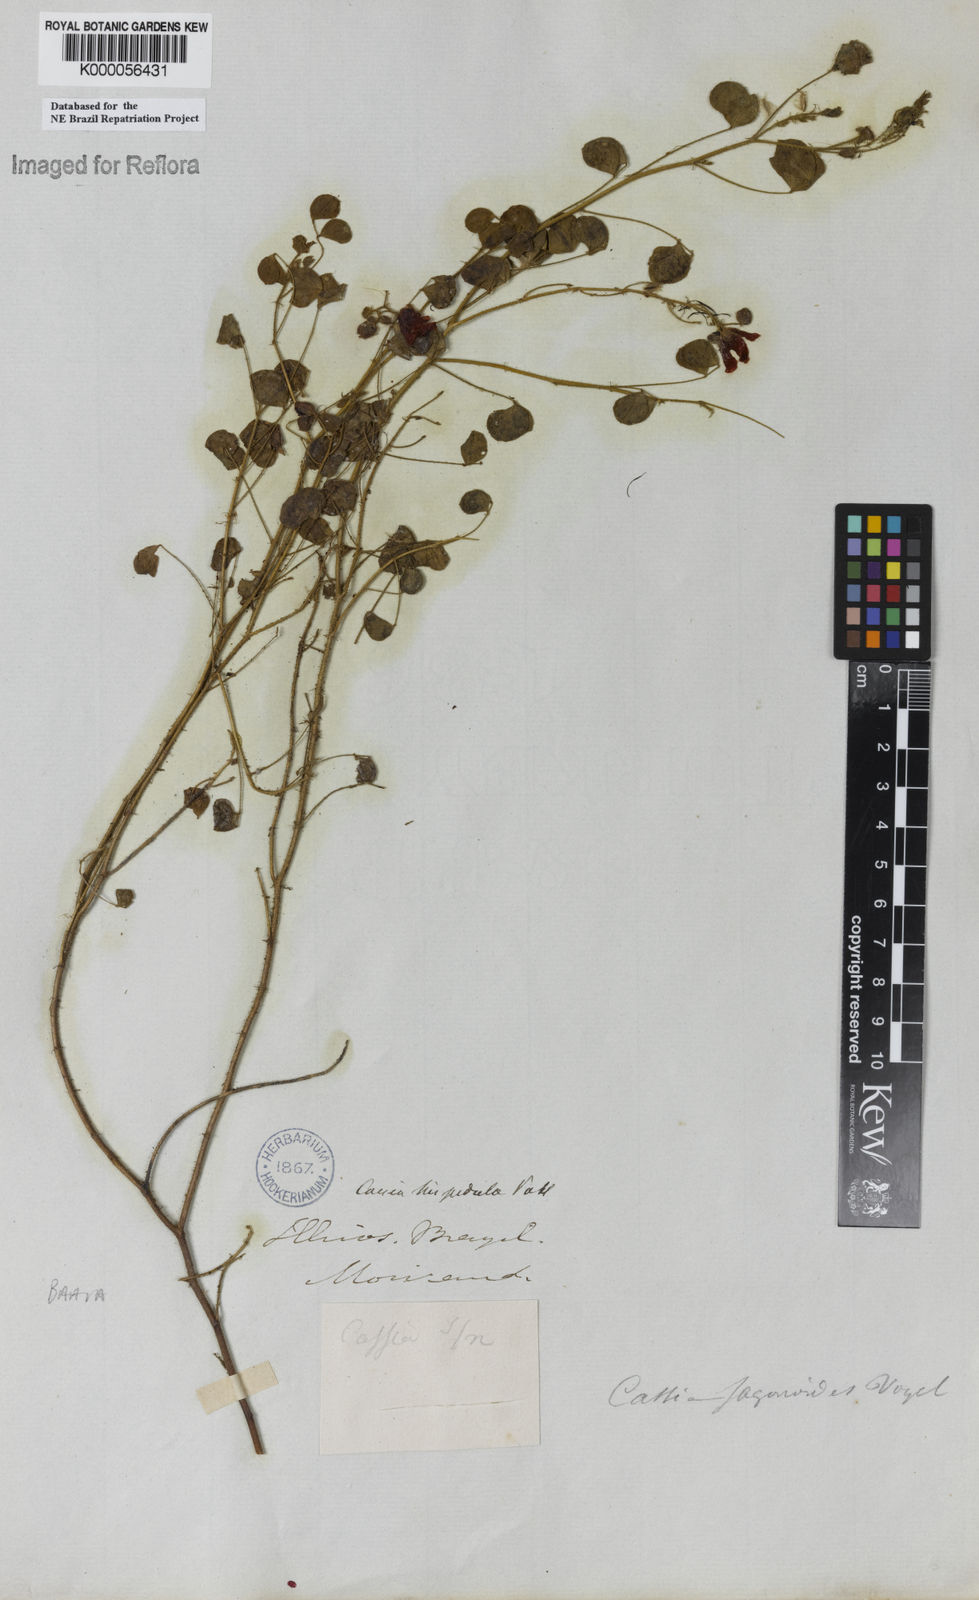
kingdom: Plantae
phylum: Tracheophyta
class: Magnoliopsida
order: Fabales
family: Fabaceae
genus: Chamaecrista
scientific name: Chamaecrista hispidula
